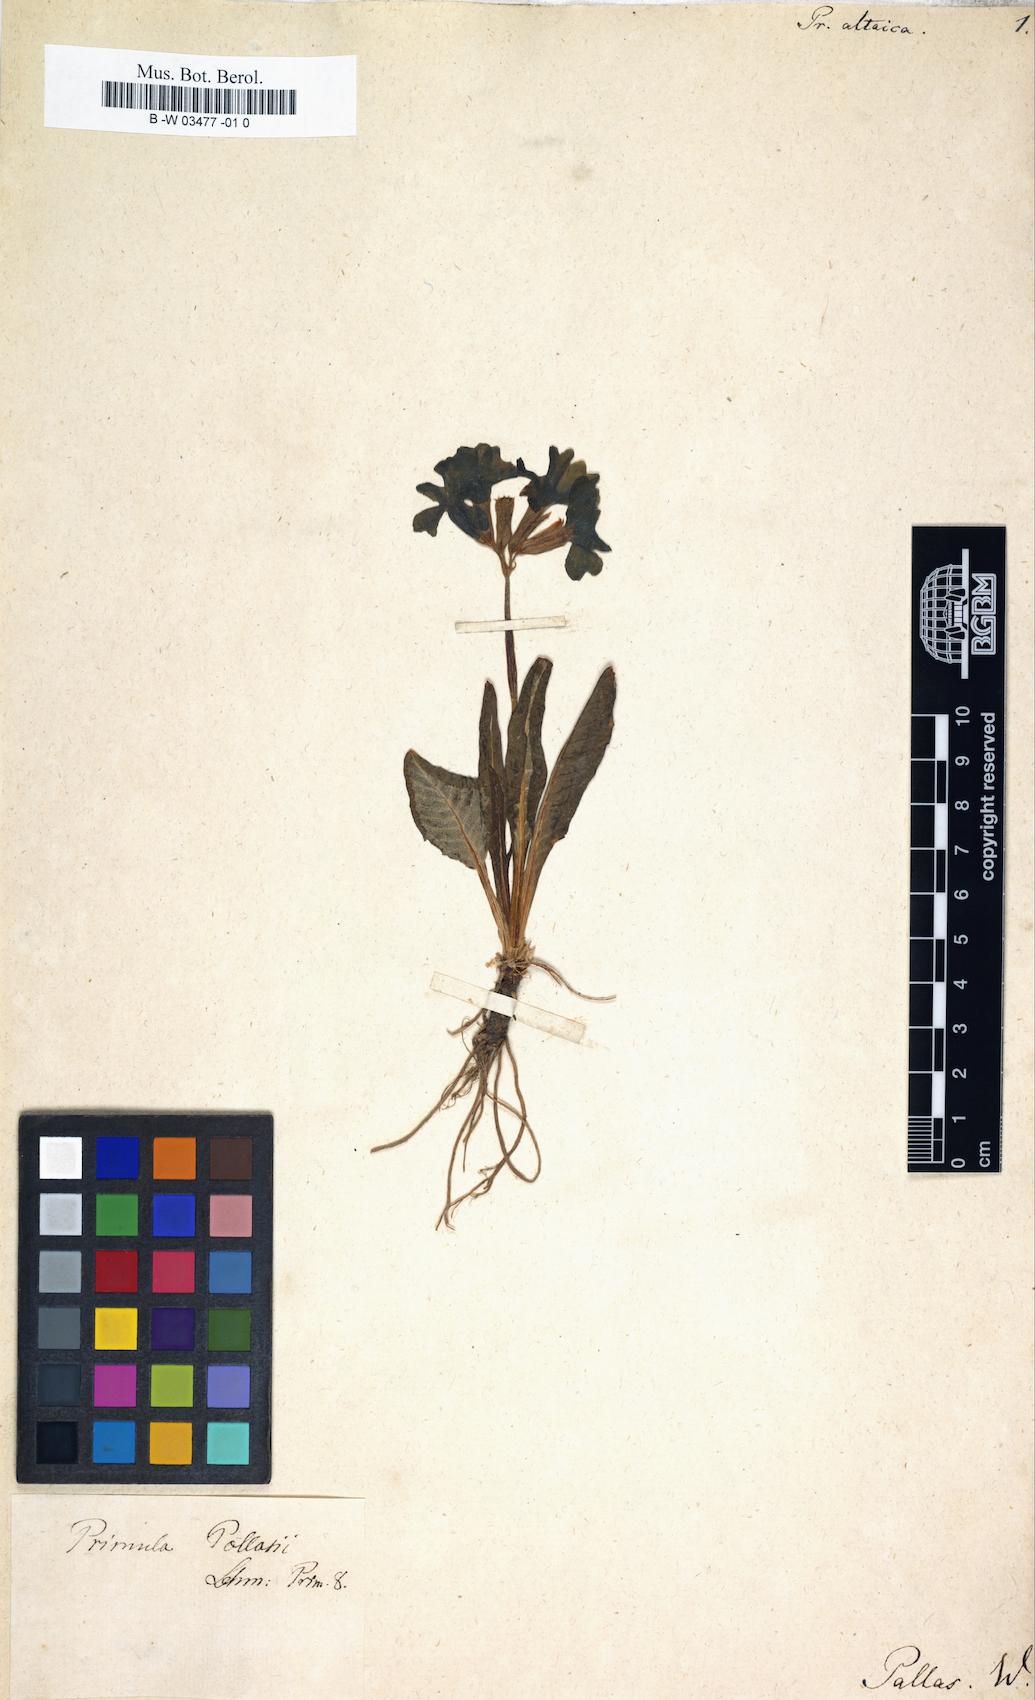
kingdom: Plantae
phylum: Tracheophyta
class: Magnoliopsida
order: Ericales
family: Primulaceae
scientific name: Primulaceae
